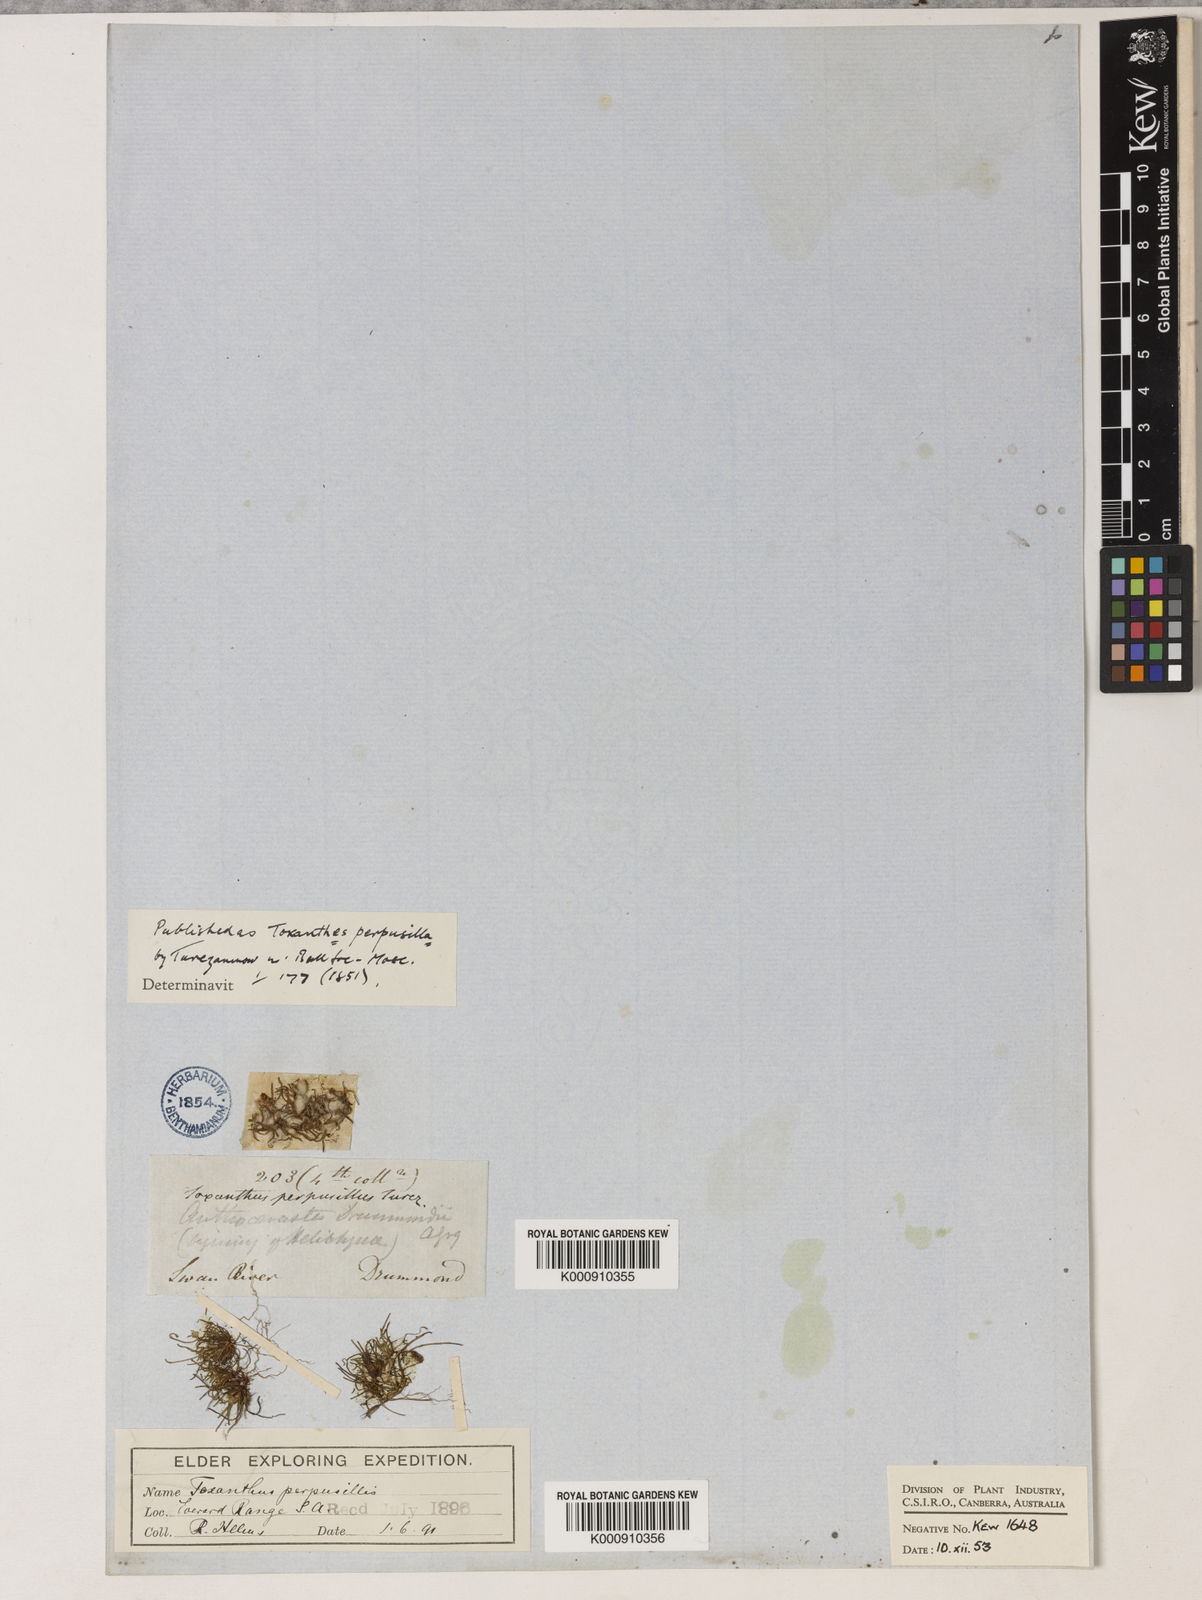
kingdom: Plantae
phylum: Tracheophyta
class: Magnoliopsida
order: Asterales
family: Asteraceae
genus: Millotia
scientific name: Millotia perpusilla
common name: Tiny bow-flower
